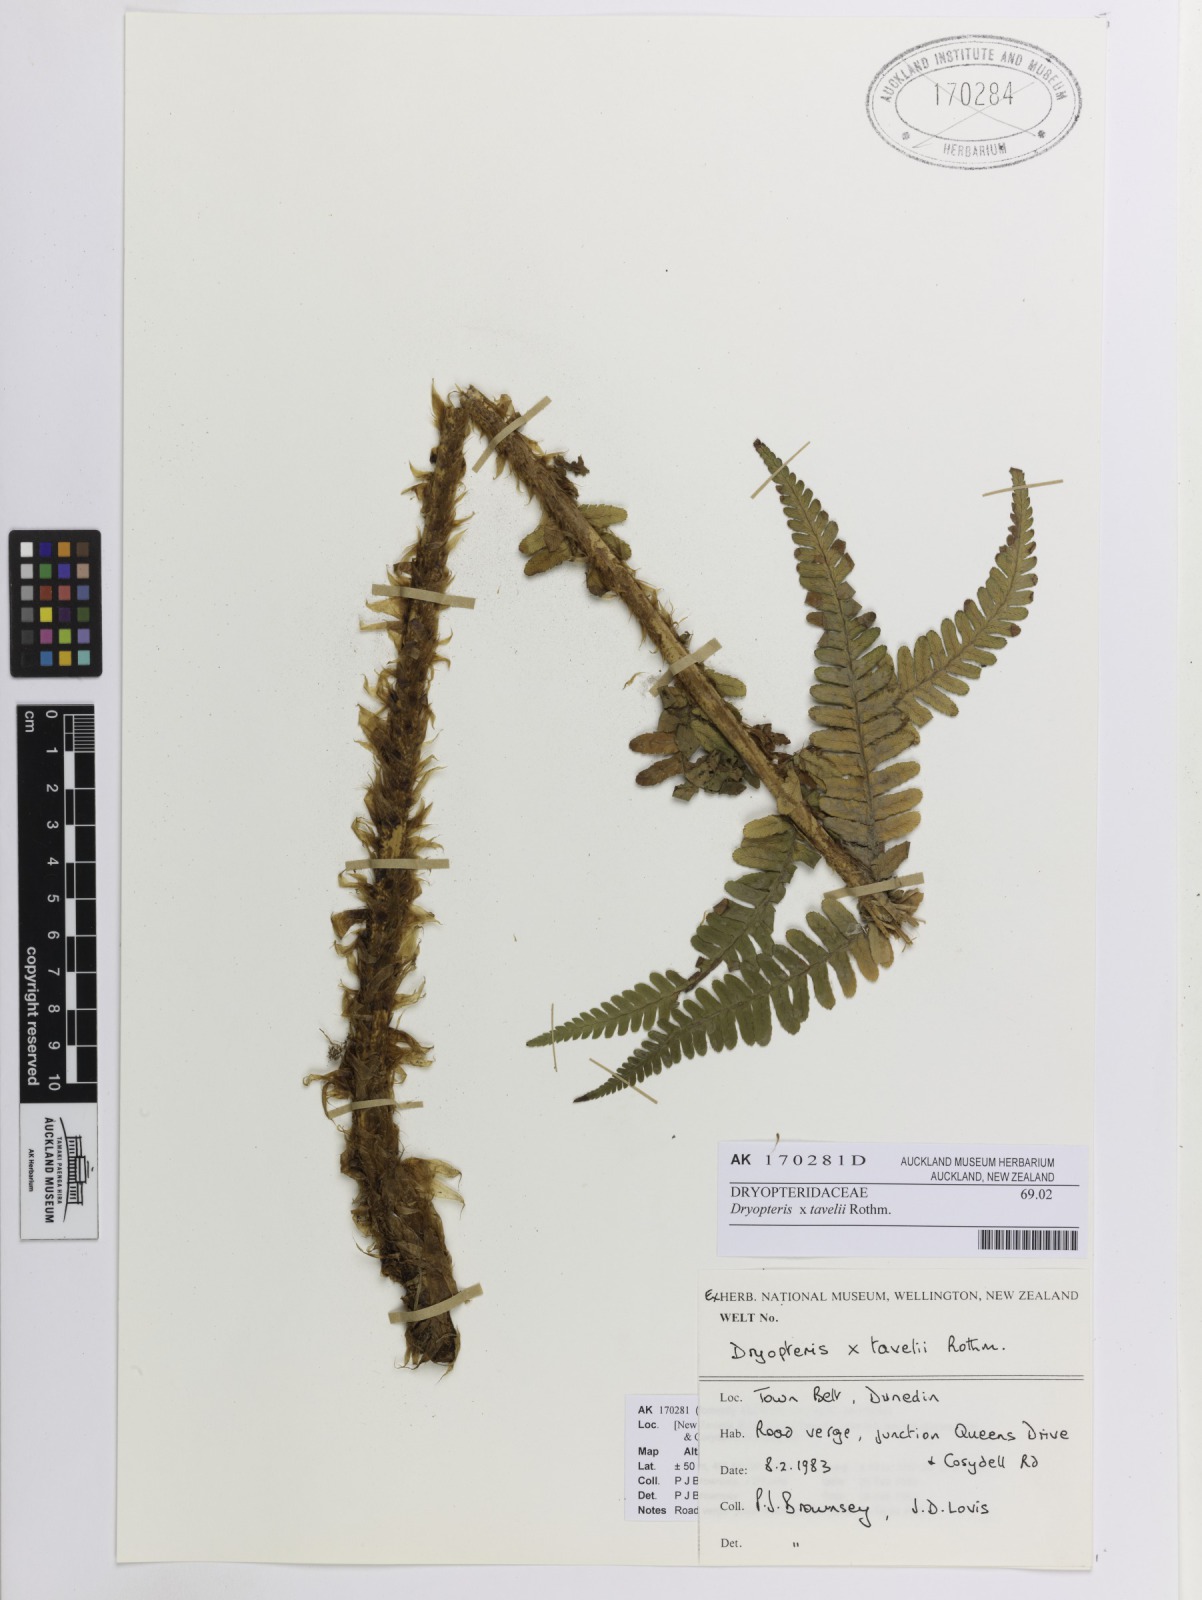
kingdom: Plantae
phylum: Tracheophyta
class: Polypodiopsida
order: Polypodiales
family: Dryopteridaceae
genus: Dryopteris
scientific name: Dryopteris borreri
